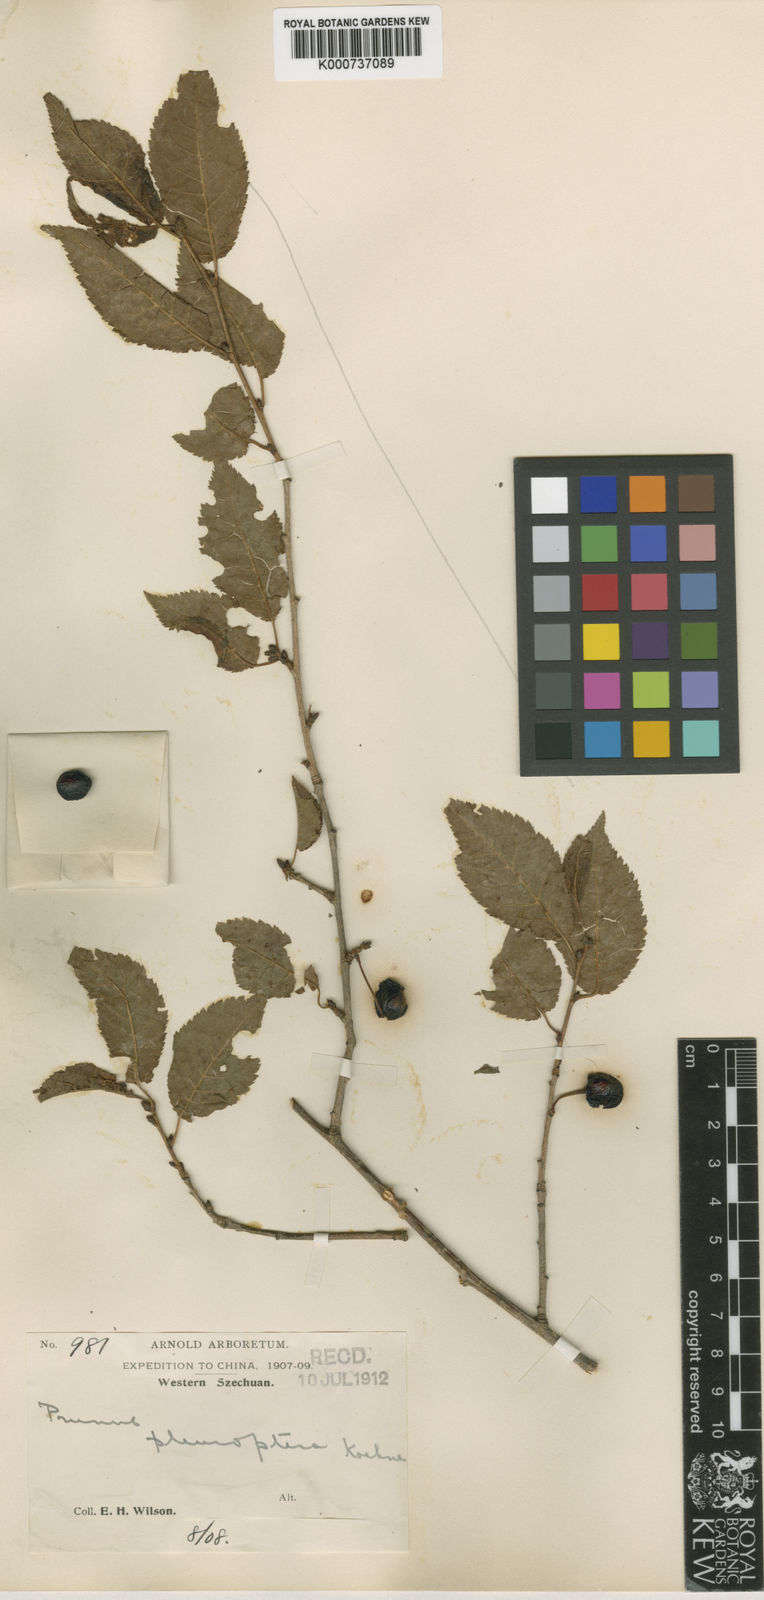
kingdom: Plantae
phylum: Tracheophyta
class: Magnoliopsida
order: Rosales
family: Rosaceae
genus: Prunus
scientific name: Prunus trichostoma
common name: Ribbed cherry
